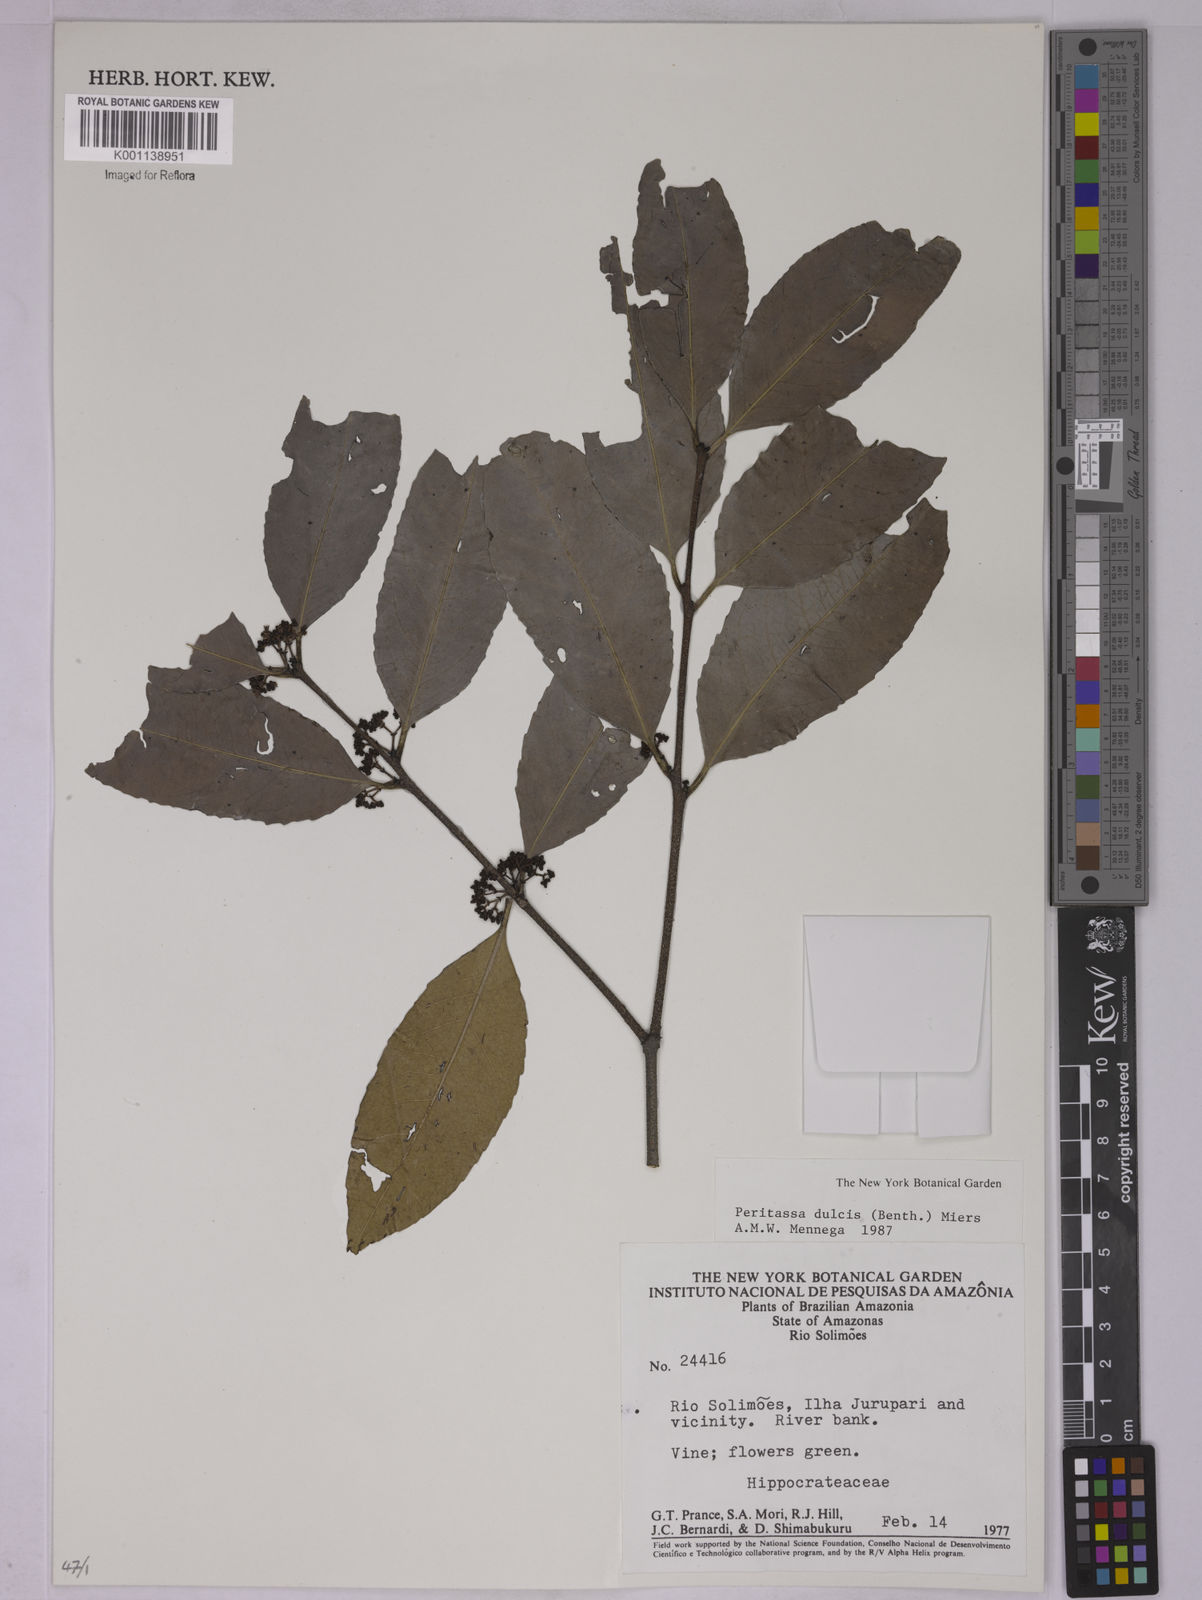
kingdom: Plantae
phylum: Tracheophyta
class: Magnoliopsida
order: Celastrales
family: Celastraceae
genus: Peritassa
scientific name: Peritassa dulcis
